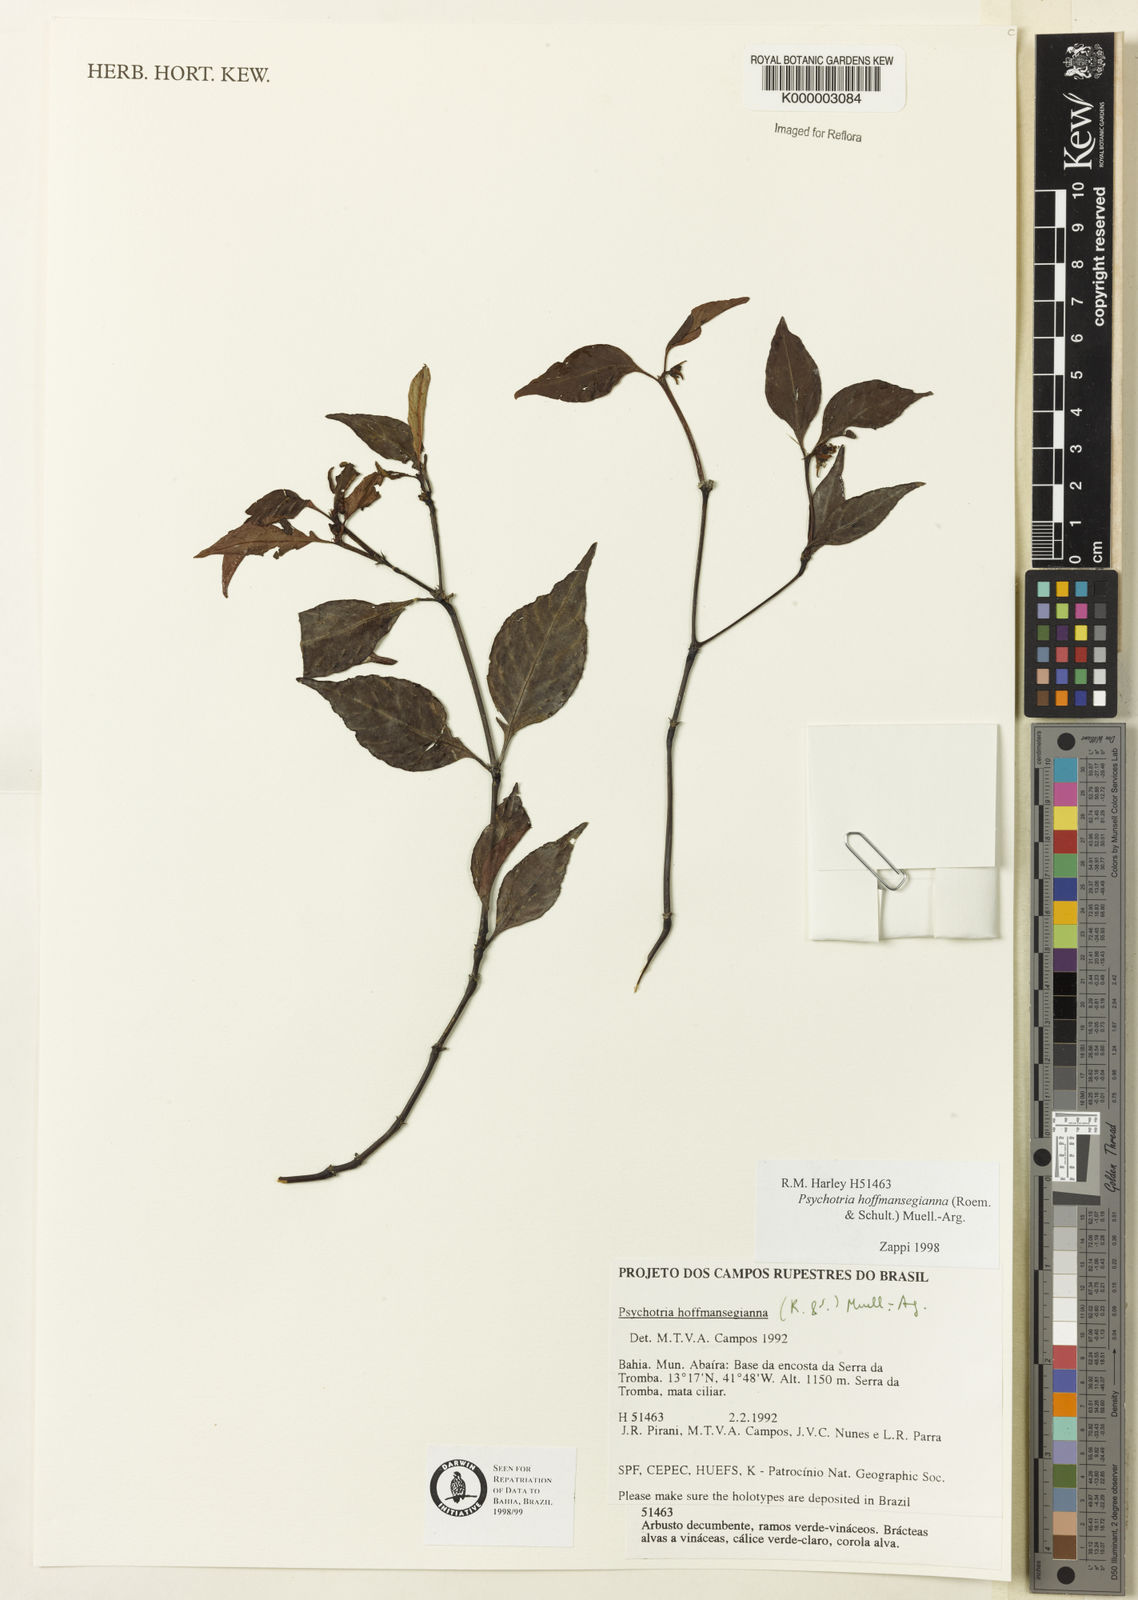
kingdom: Plantae
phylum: Tracheophyta
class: Magnoliopsida
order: Gentianales
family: Rubiaceae
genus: Psychotria
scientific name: Psychotria
